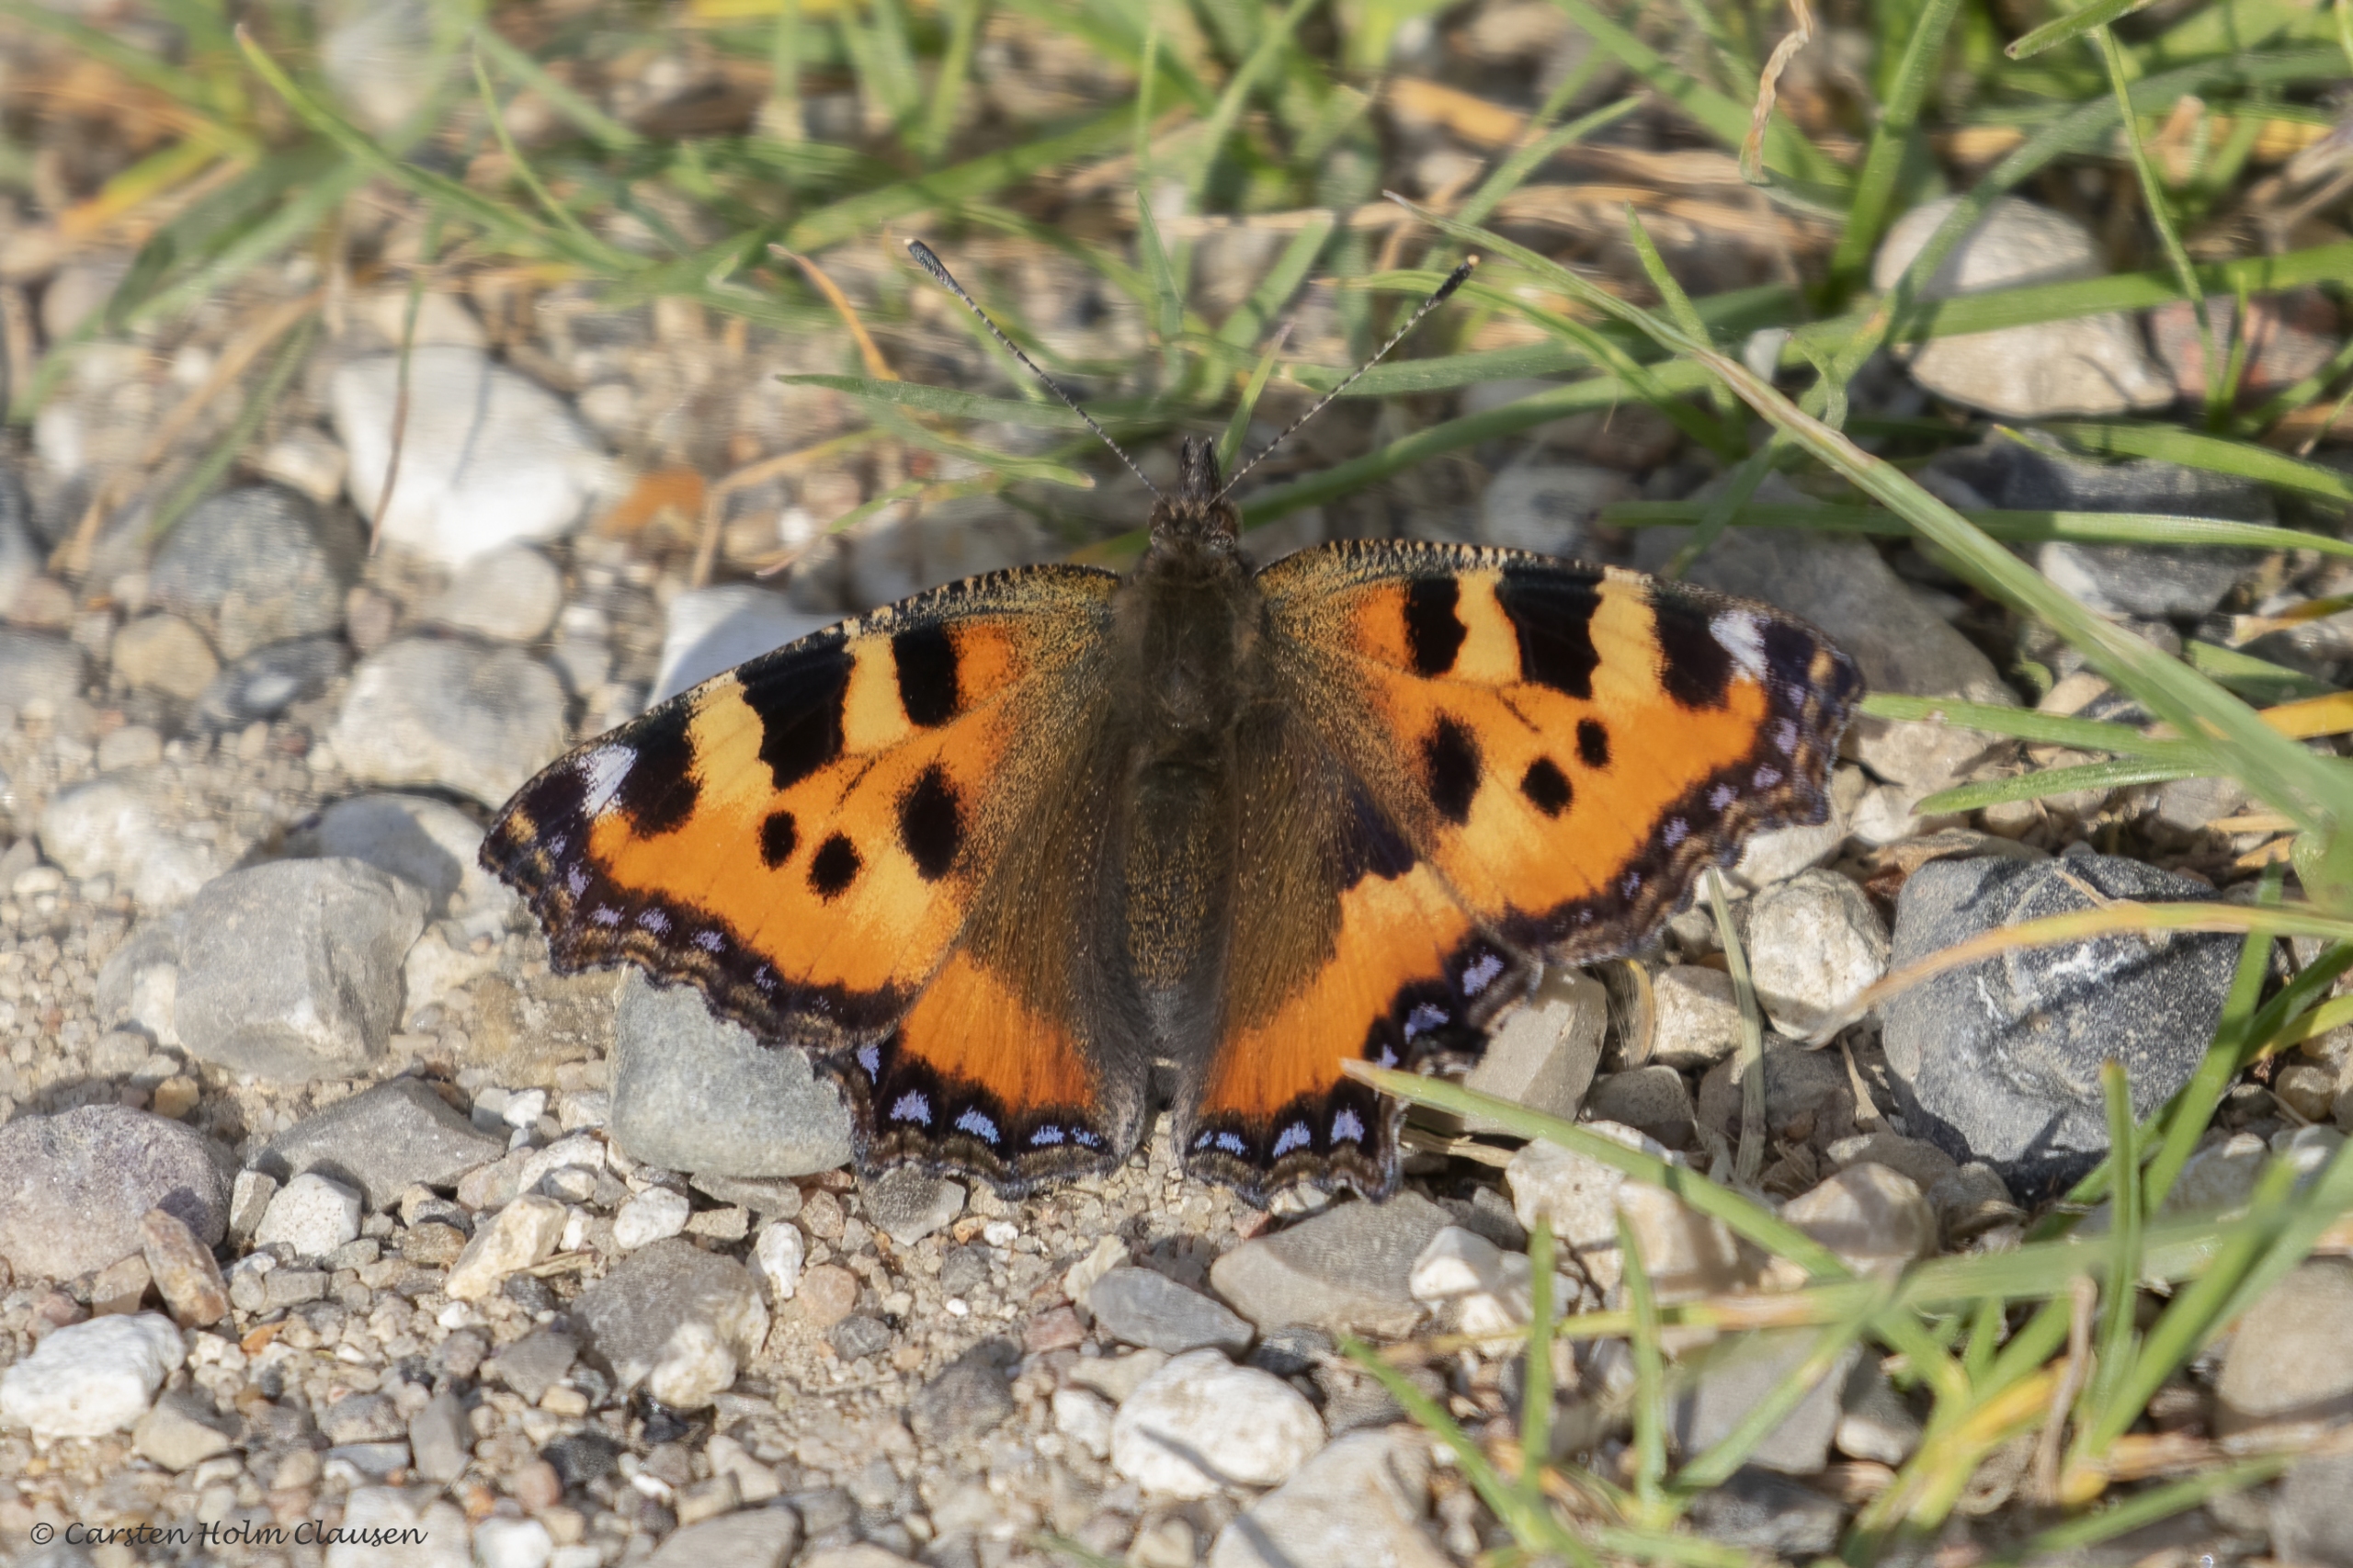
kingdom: Animalia
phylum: Arthropoda
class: Insecta
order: Lepidoptera
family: Nymphalidae
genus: Aglais
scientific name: Aglais urticae
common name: Nældens takvinge
